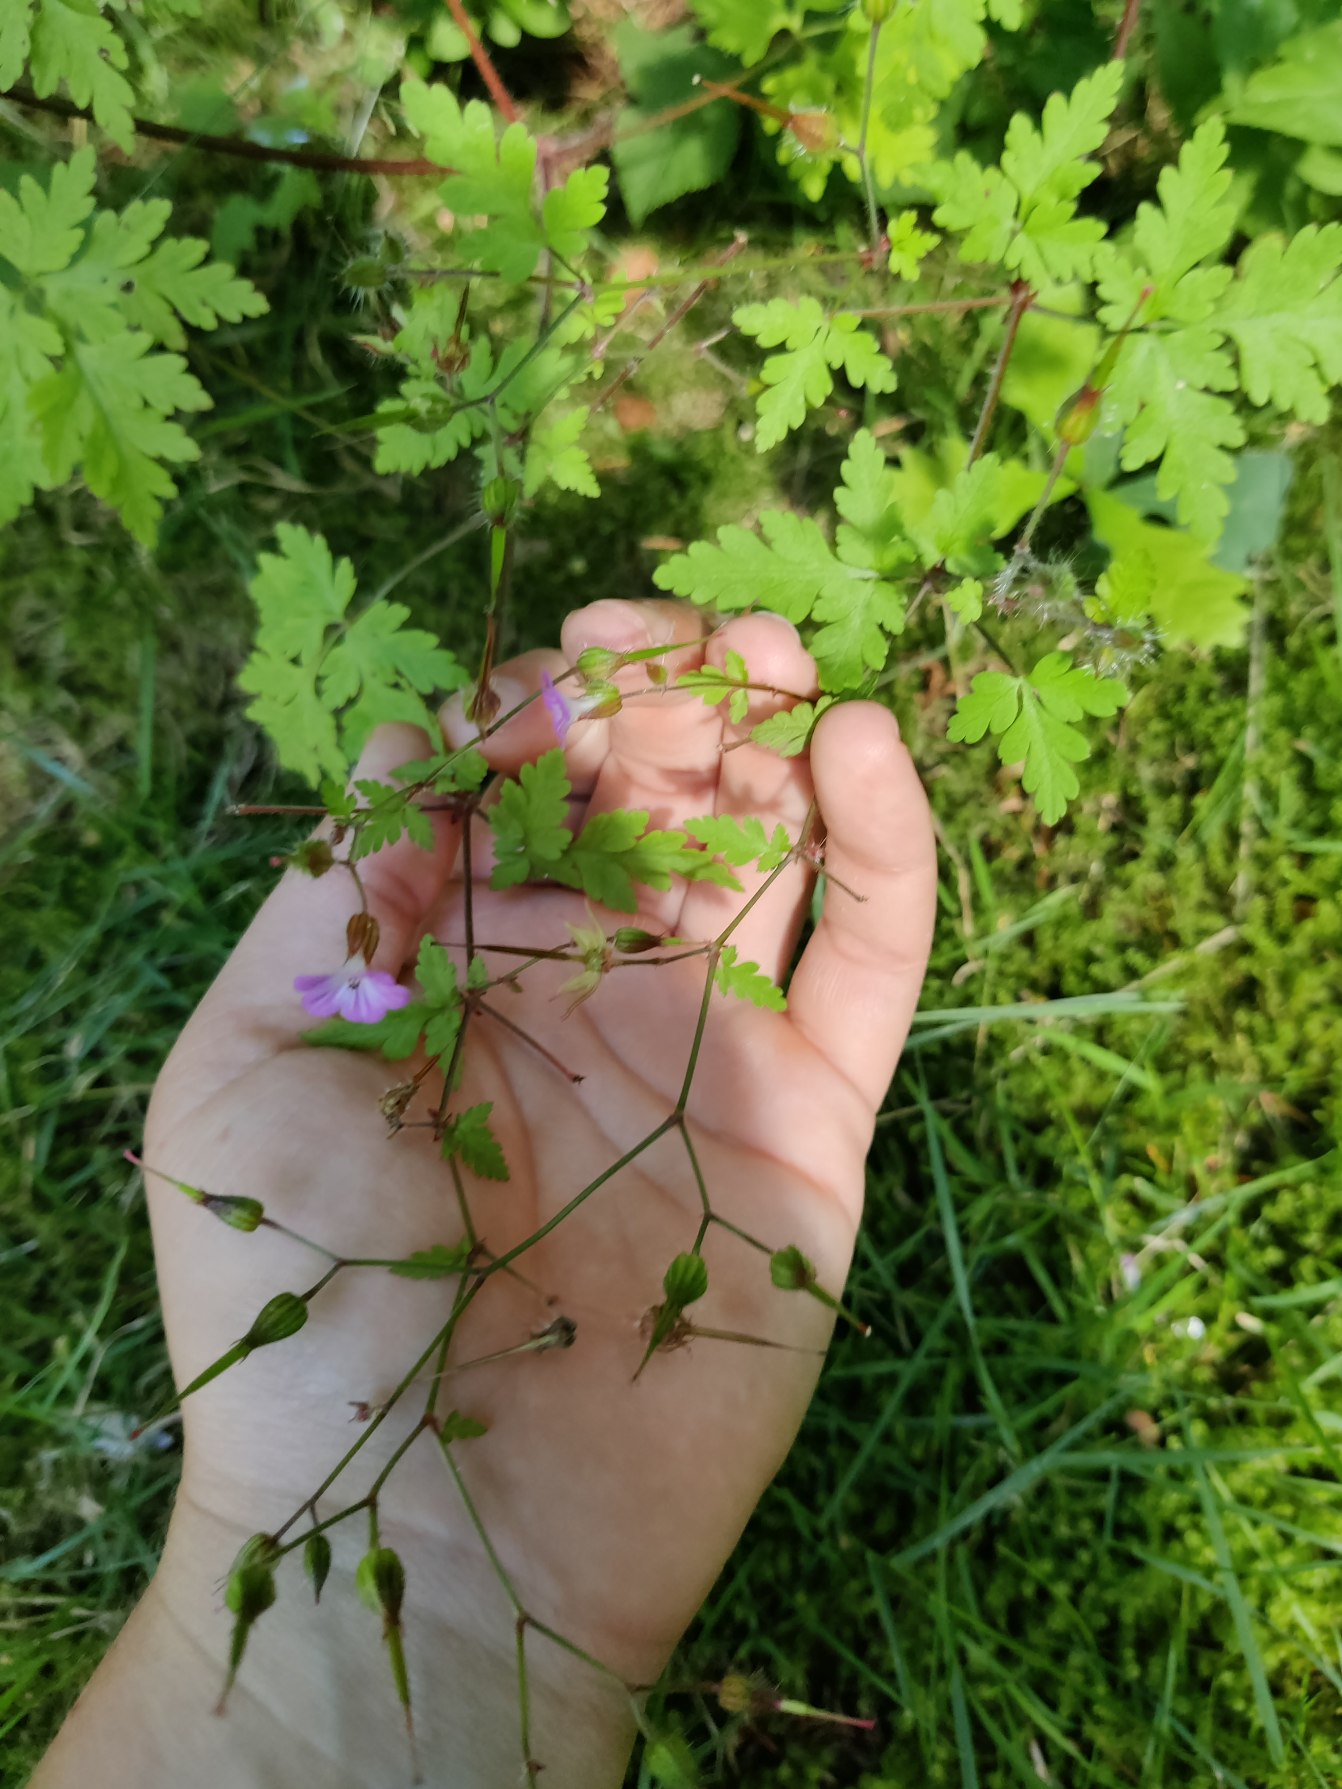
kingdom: Plantae
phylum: Tracheophyta
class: Magnoliopsida
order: Geraniales
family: Geraniaceae
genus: Geranium
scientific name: Geranium robertianum
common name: Stinkende storkenæb
